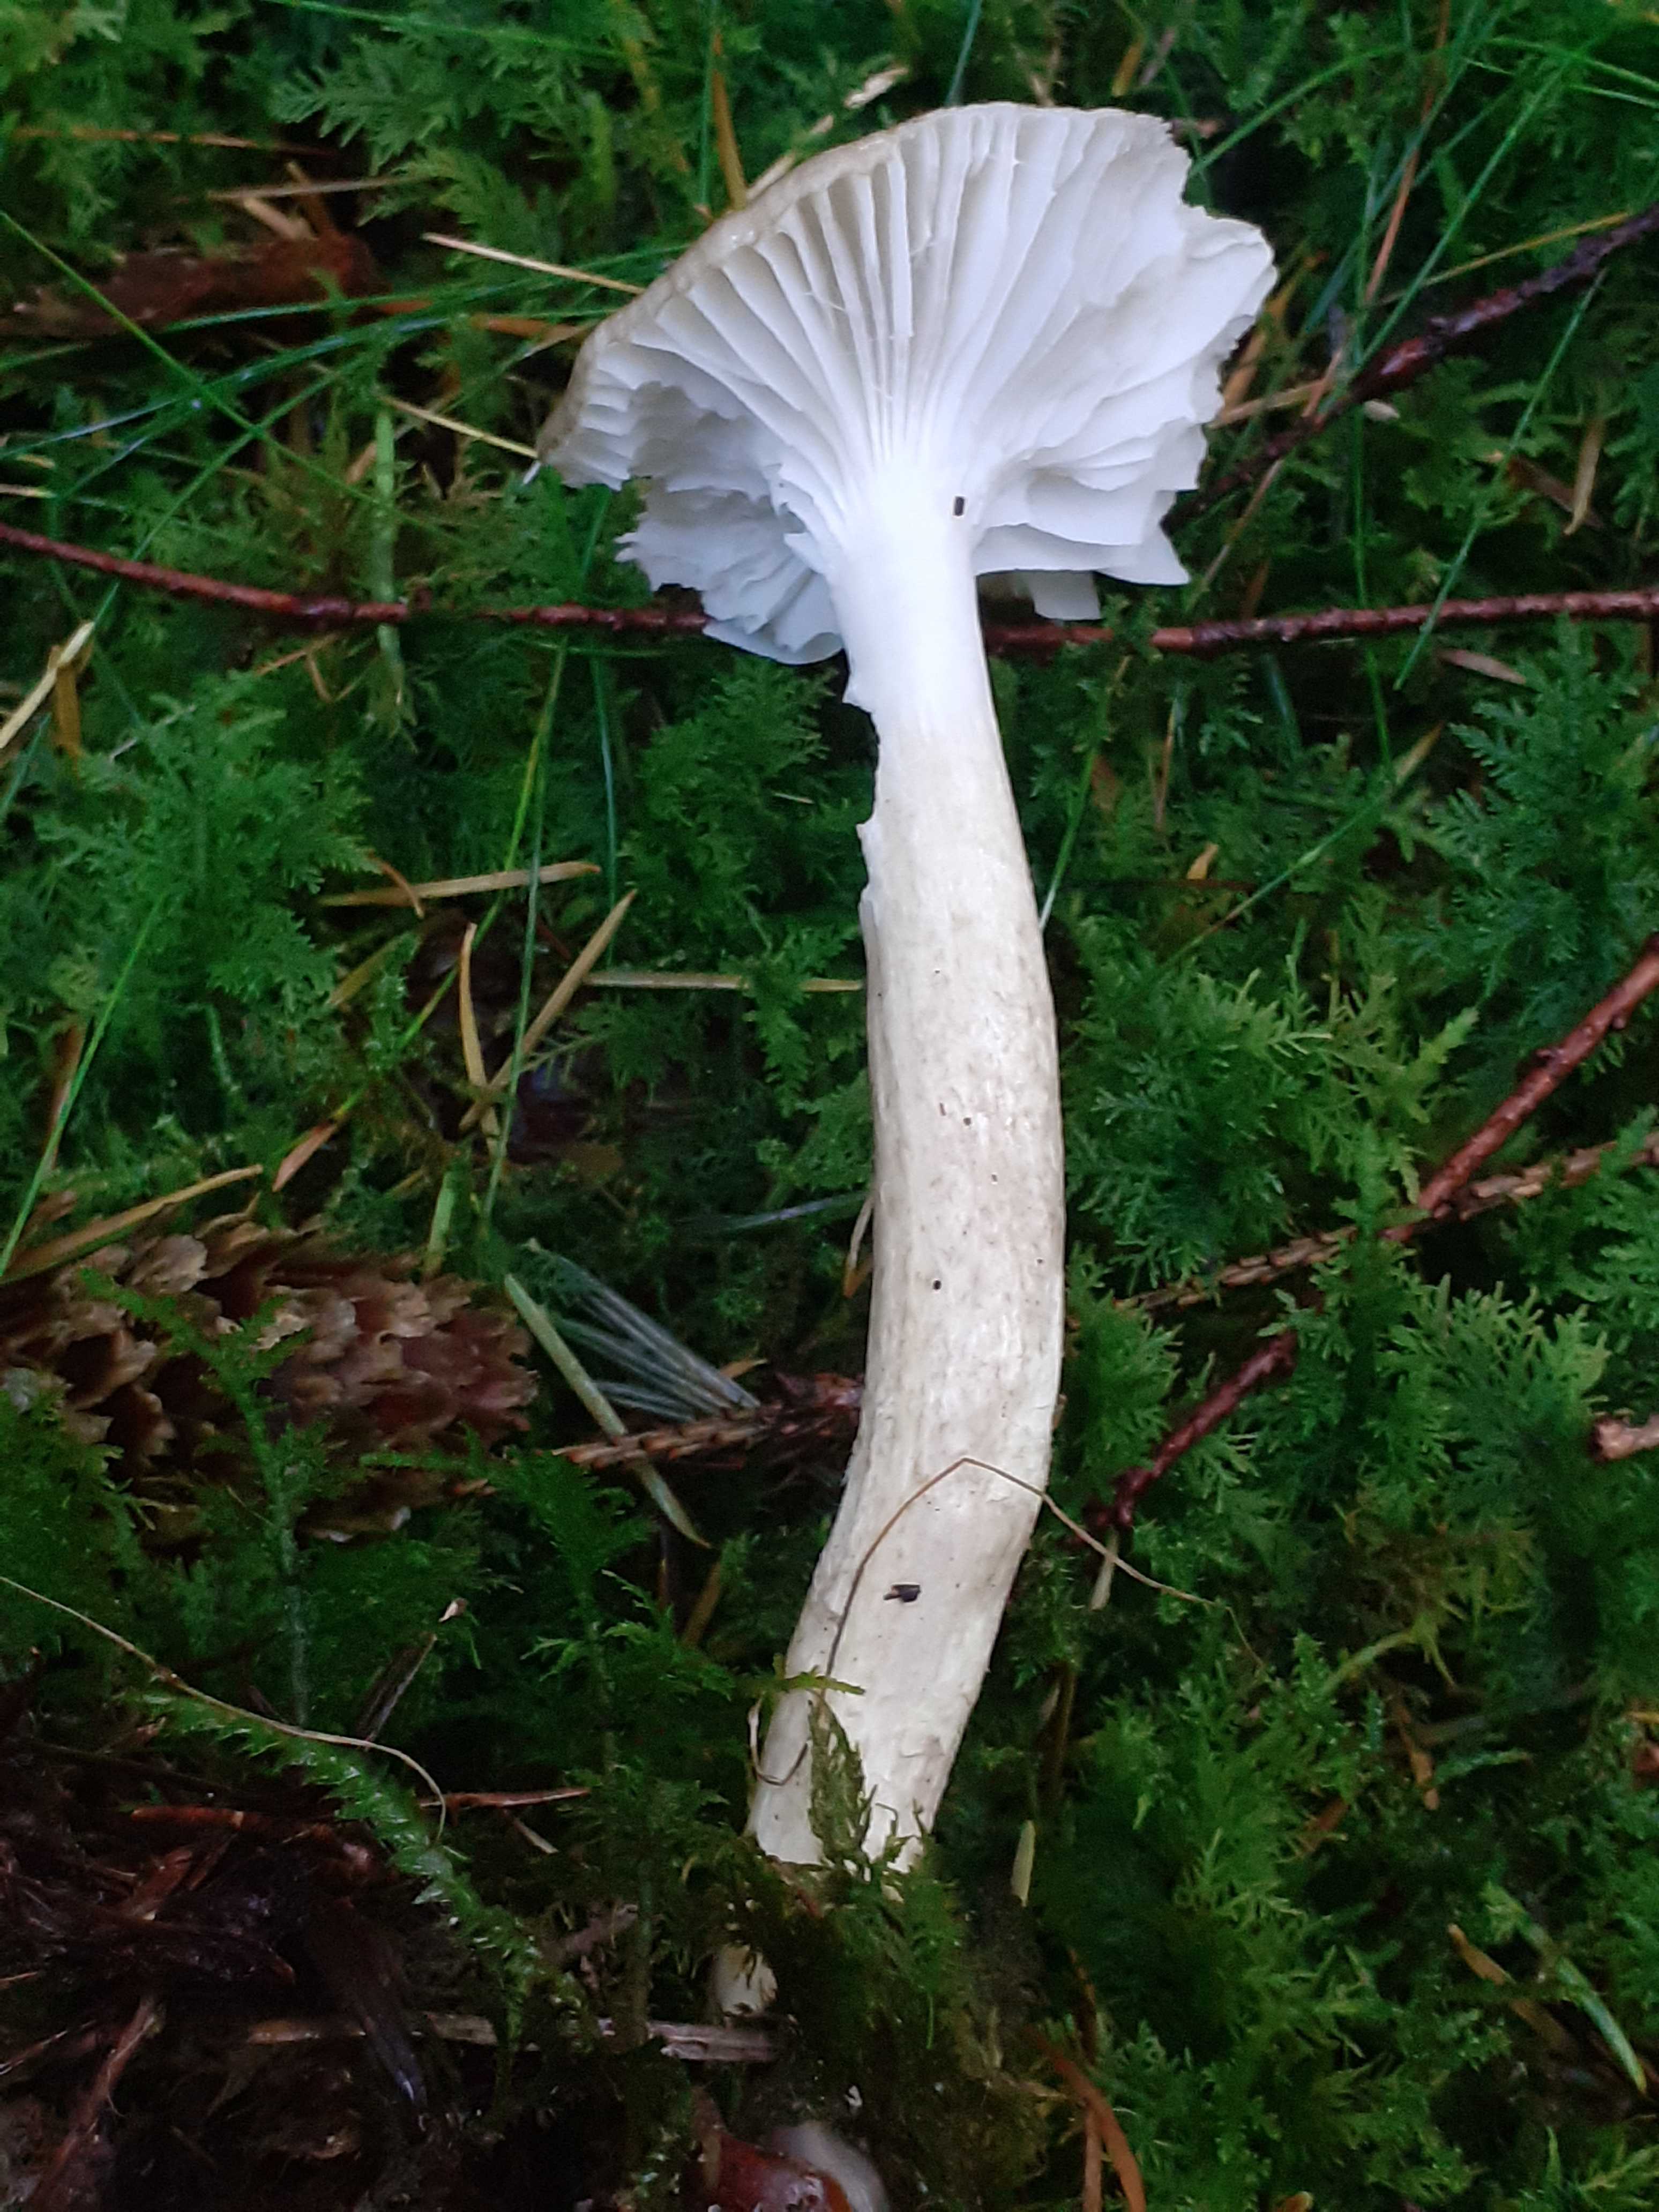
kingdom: Fungi
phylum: Basidiomycota
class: Agaricomycetes
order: Agaricales
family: Hygrophoraceae
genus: Hygrophorus
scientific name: Hygrophorus olivaceoalbus
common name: hvidbrun sneglehat
